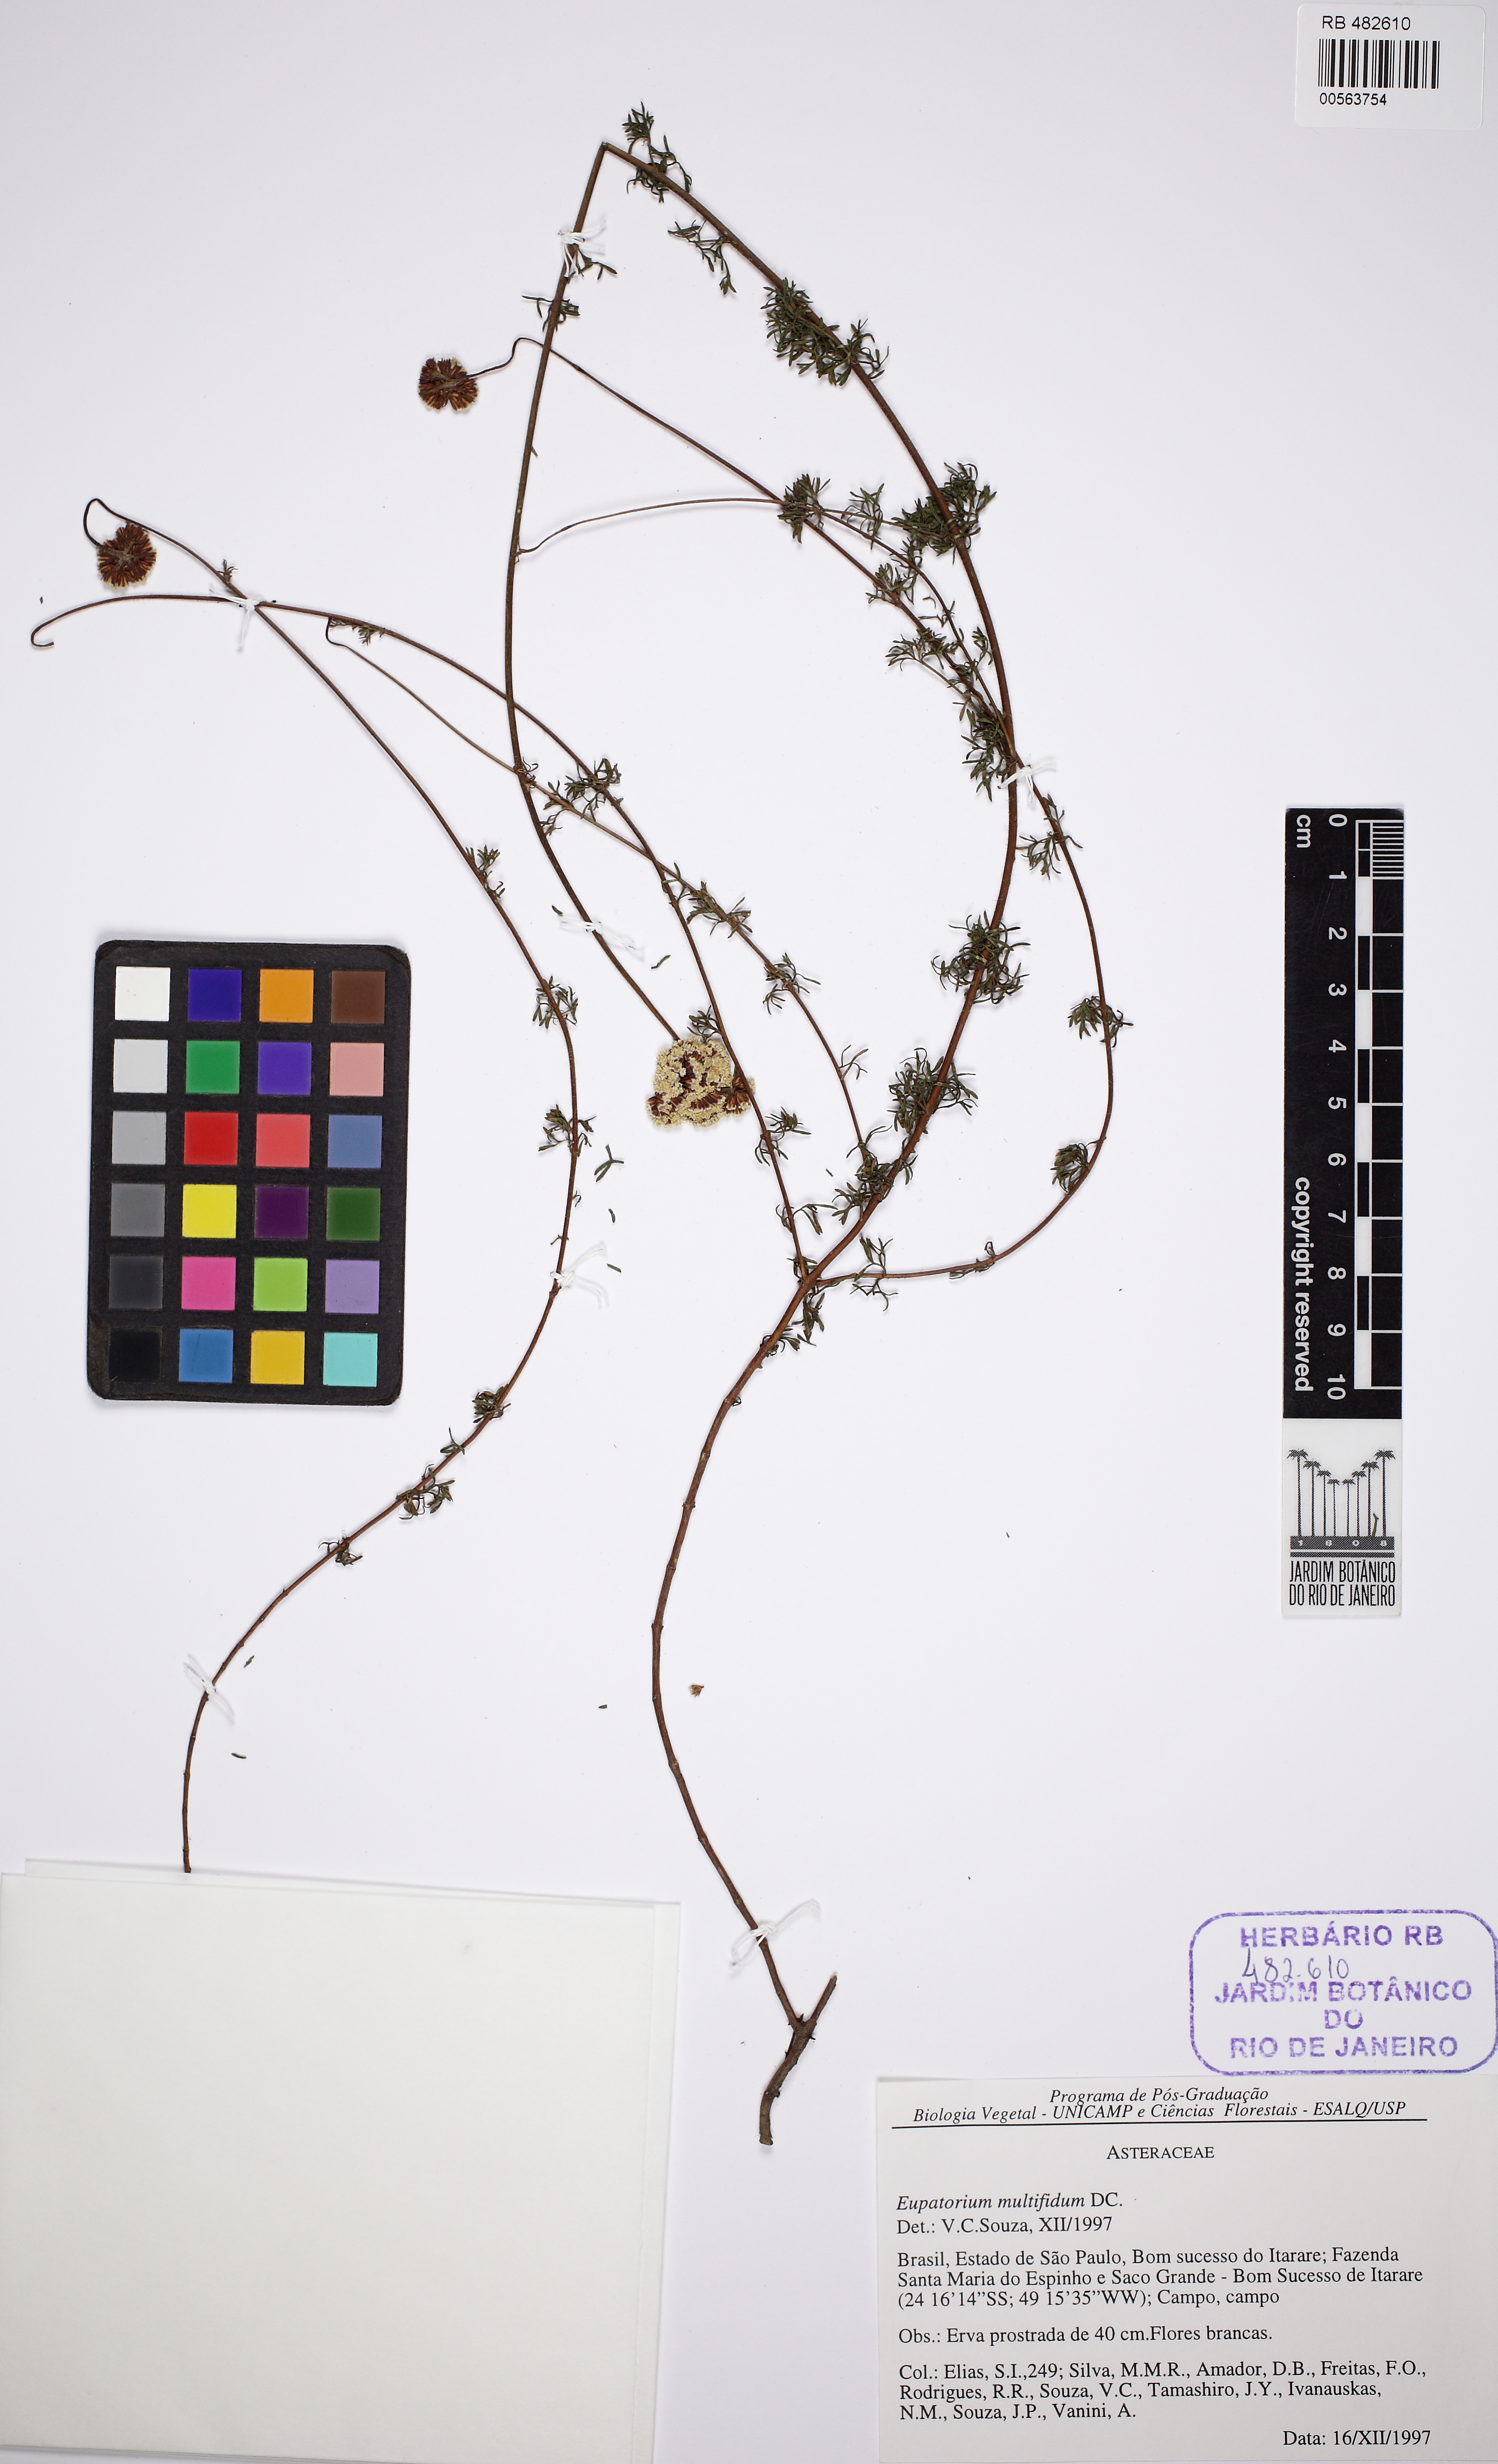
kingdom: Plantae
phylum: Tracheophyta
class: Magnoliopsida
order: Asterales
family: Asteraceae
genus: Grazielia
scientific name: Grazielia multifida
